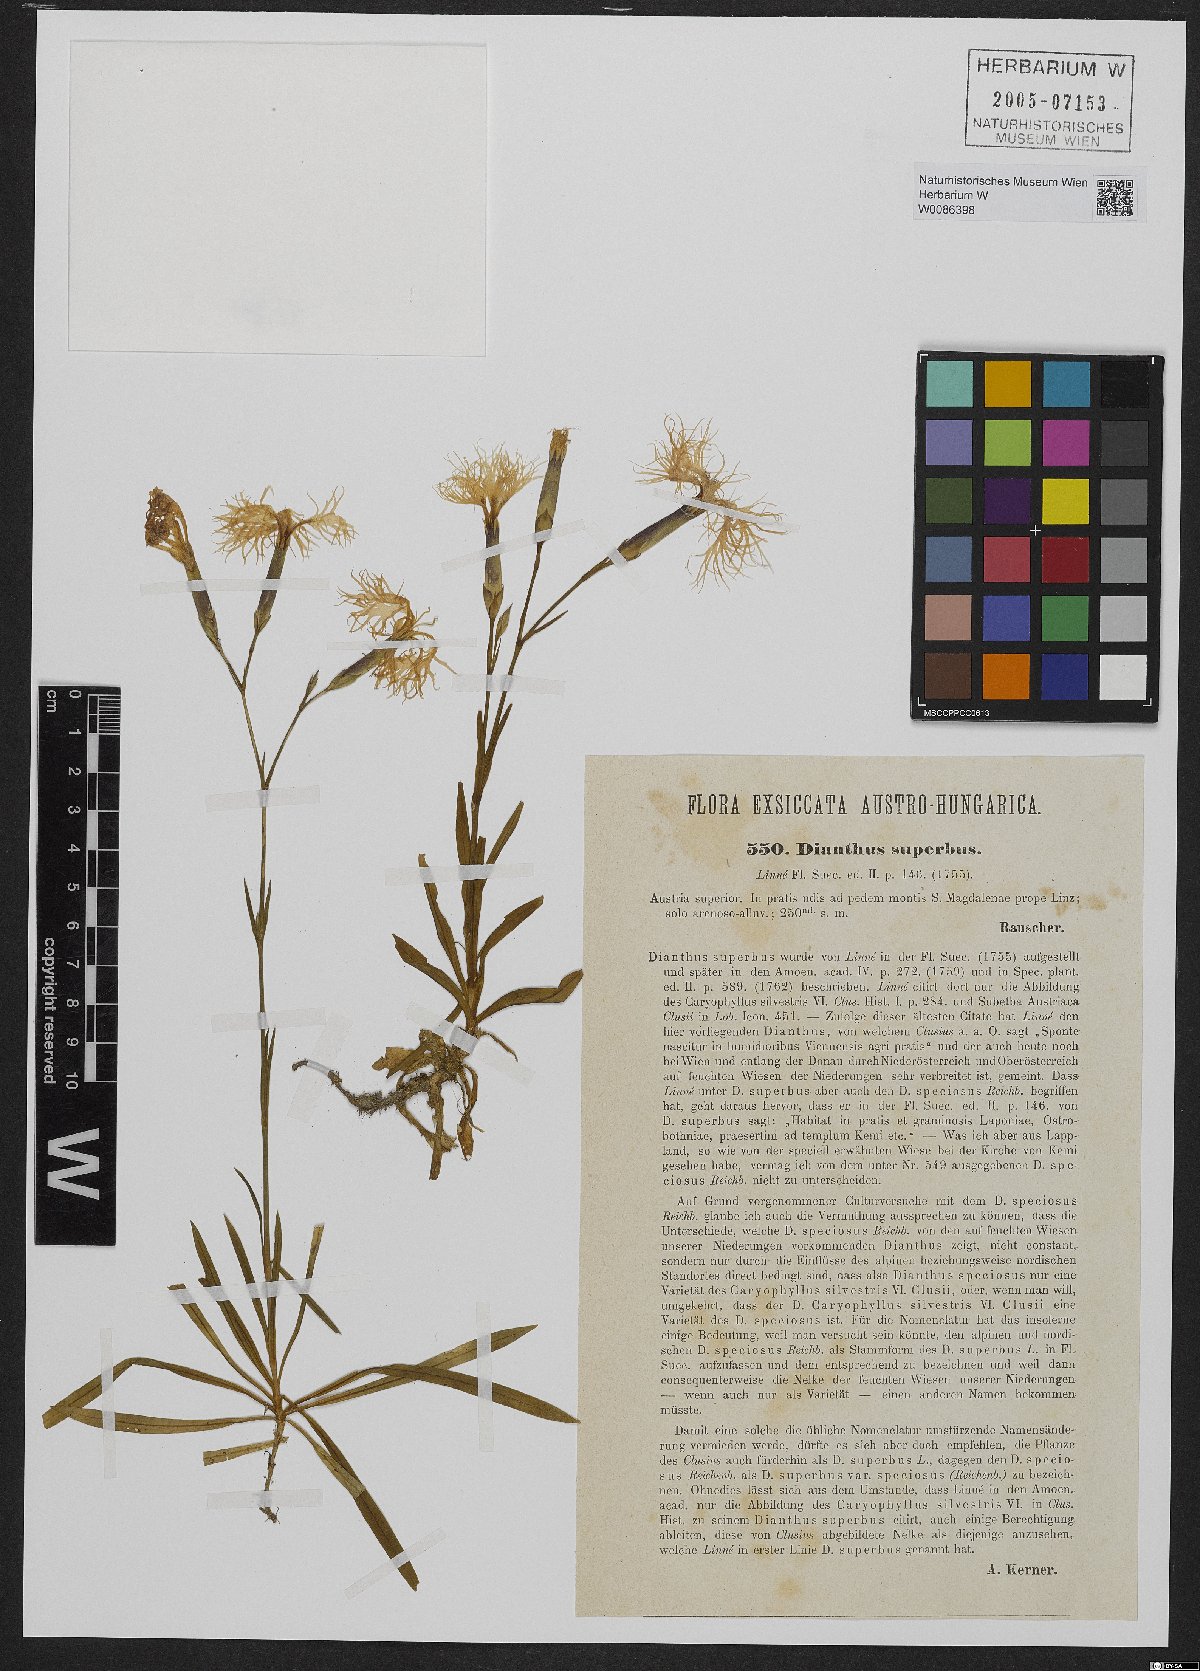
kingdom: Plantae
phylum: Tracheophyta
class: Magnoliopsida
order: Caryophyllales
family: Caryophyllaceae
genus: Dianthus
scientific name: Dianthus superbus
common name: Fringed pink
